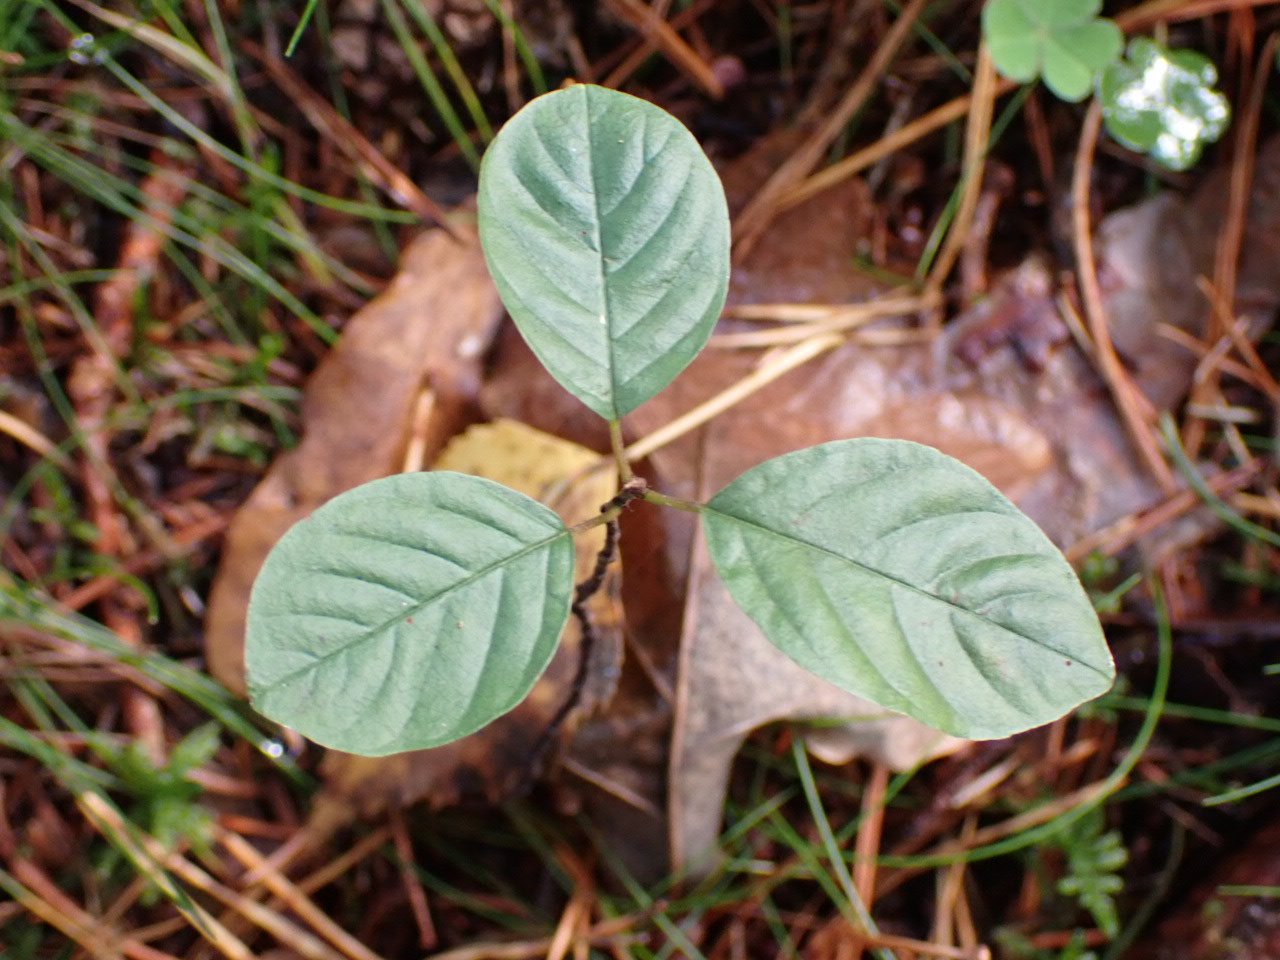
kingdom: Plantae
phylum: Tracheophyta
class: Magnoliopsida
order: Rosales
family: Rhamnaceae
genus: Frangula
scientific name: Frangula alnus
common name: Tørst
